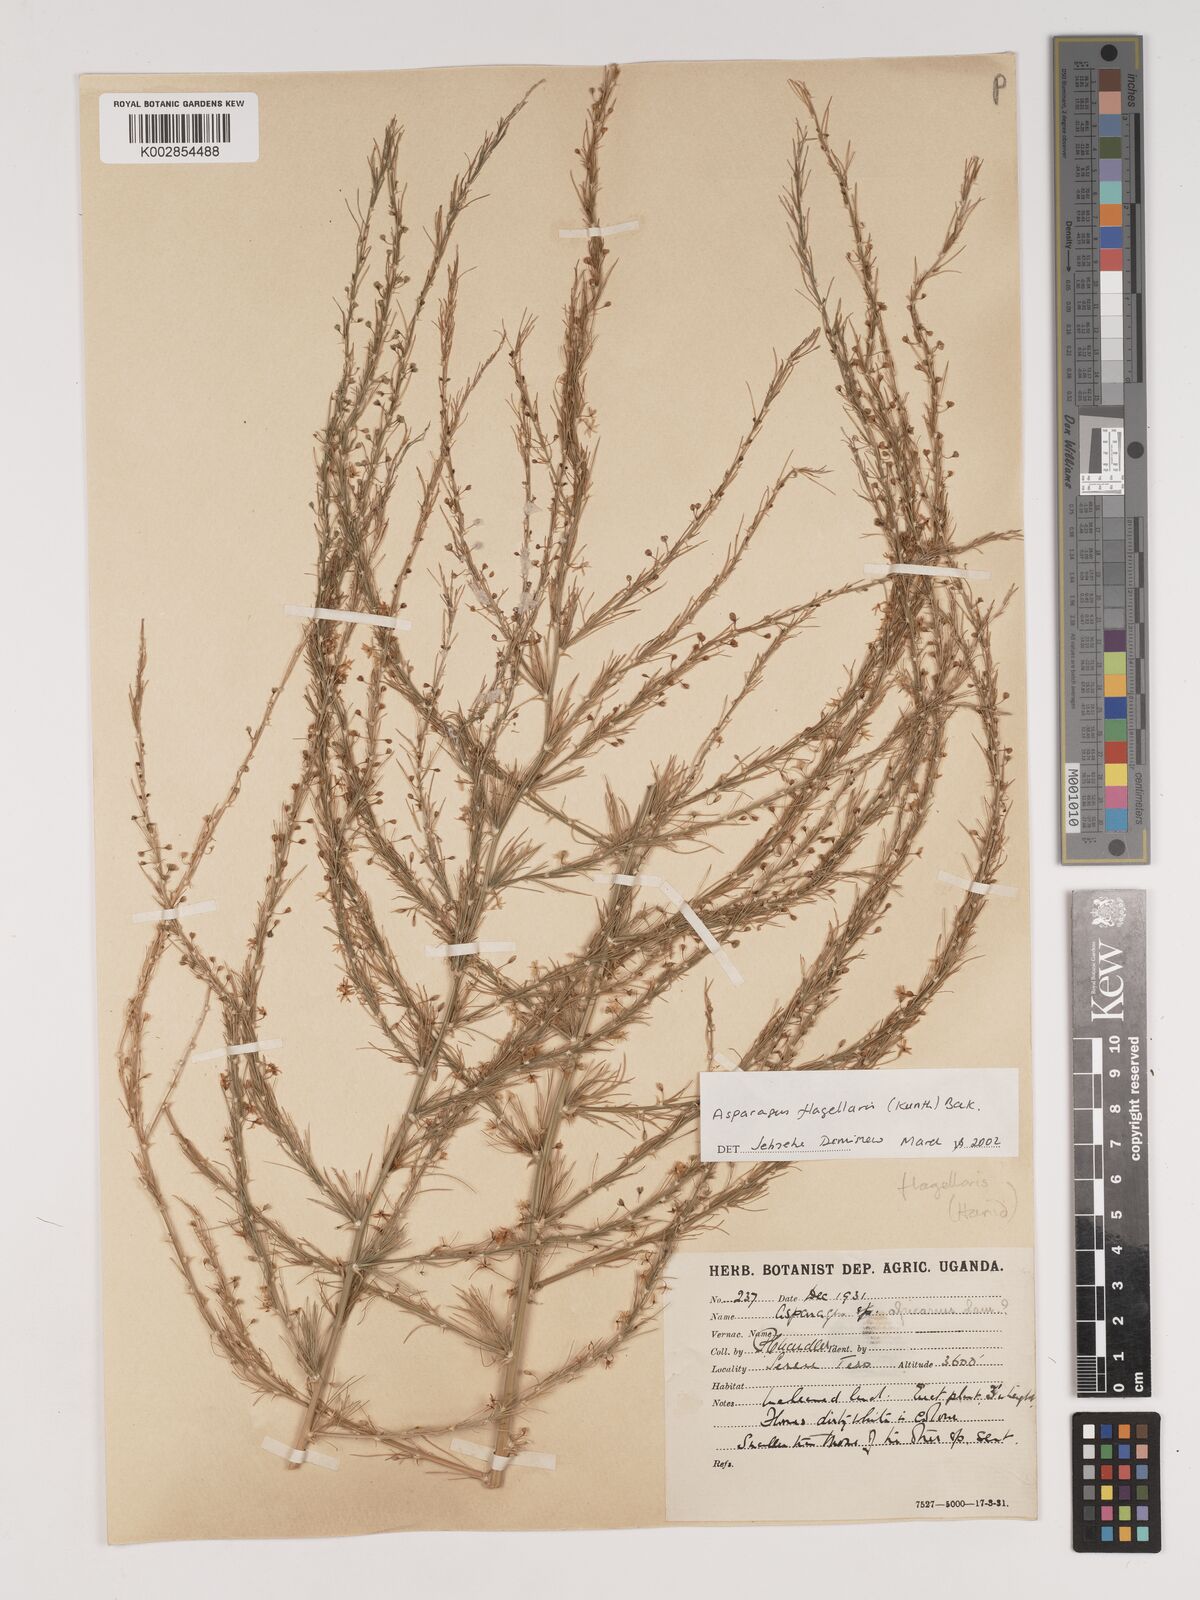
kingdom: Plantae
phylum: Tracheophyta
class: Liliopsida
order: Asparagales
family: Asparagaceae
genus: Asparagus
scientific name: Asparagus flagellaris
